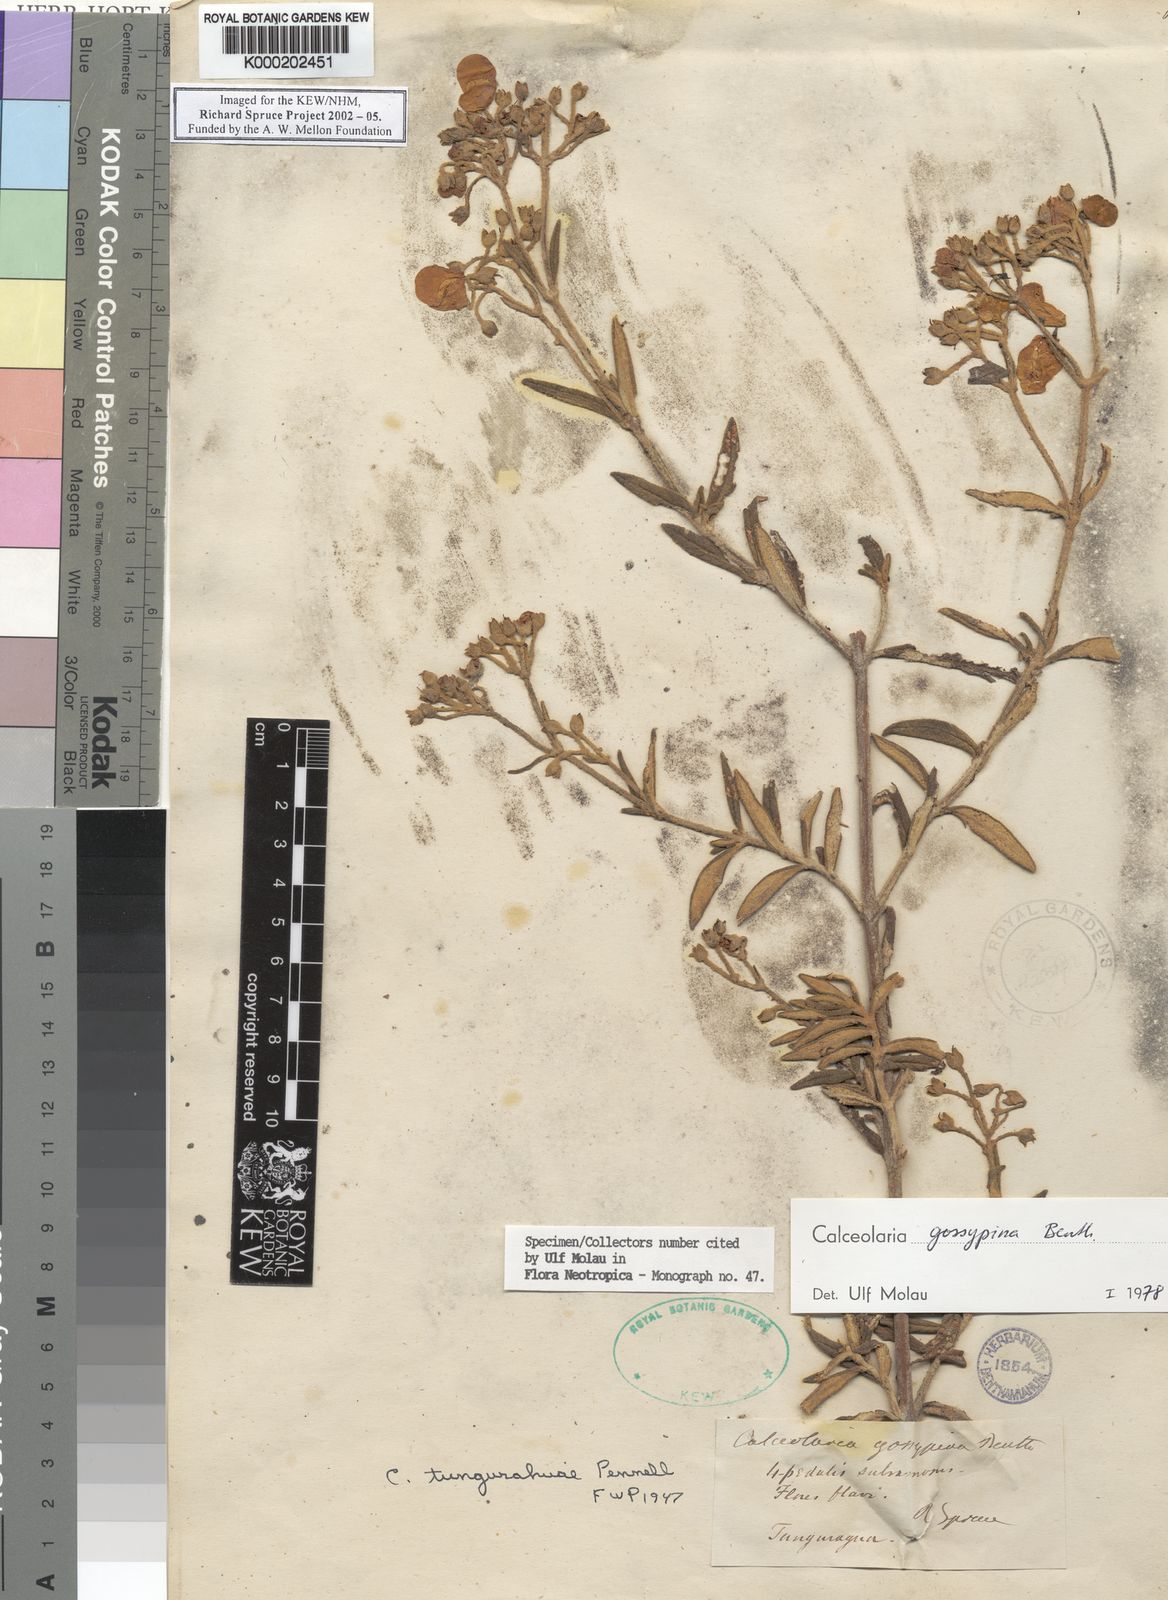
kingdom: Plantae
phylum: Tracheophyta
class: Magnoliopsida
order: Lamiales
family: Calceolariaceae
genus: Calceolaria
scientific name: Calceolaria gossypina
